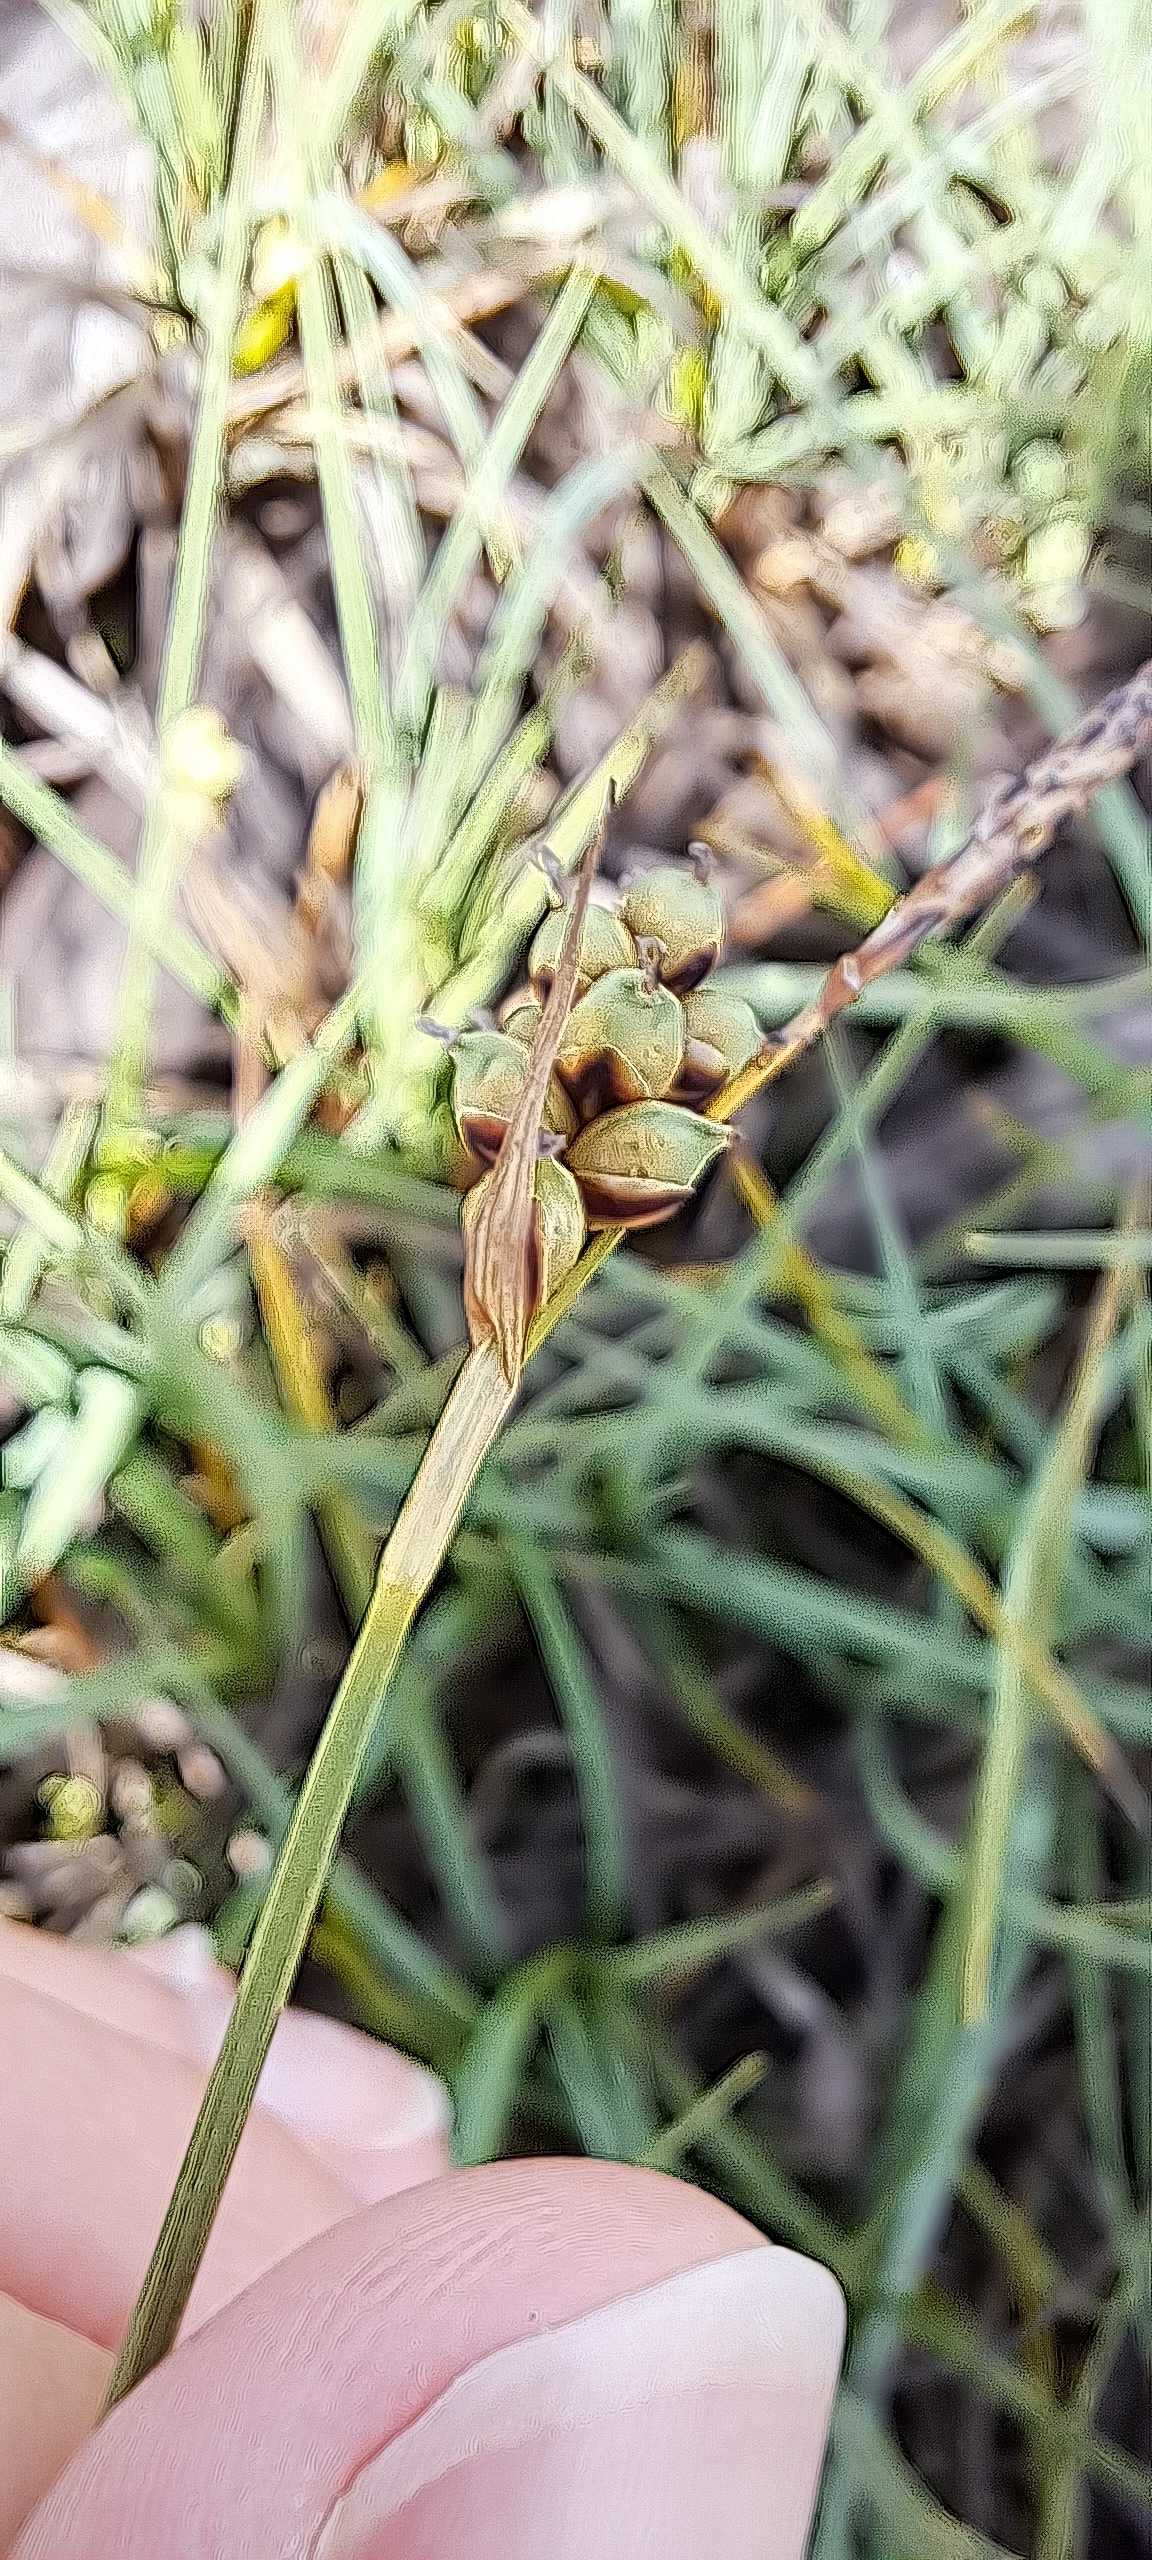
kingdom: Plantae
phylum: Tracheophyta
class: Liliopsida
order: Poales
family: Cyperaceae
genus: Carex
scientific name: Carex panicea
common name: Hirse-star
